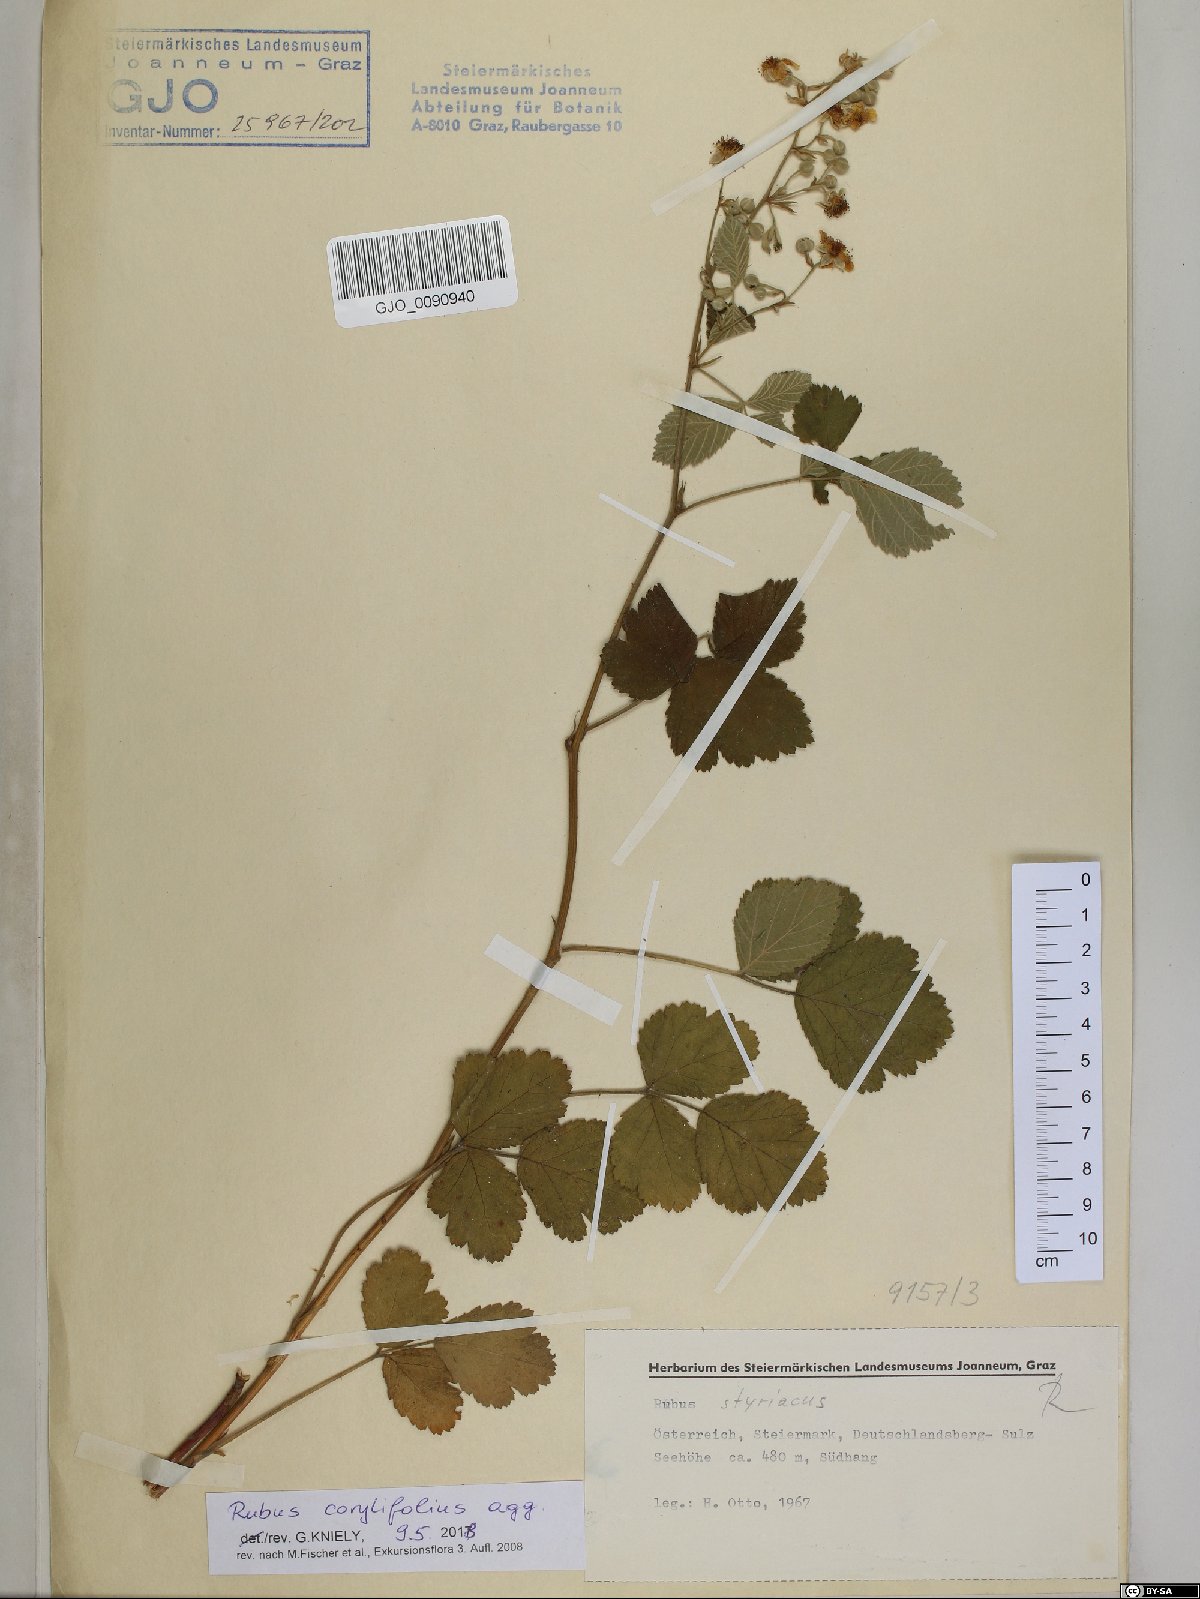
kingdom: Plantae
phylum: Tracheophyta
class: Magnoliopsida
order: Rosales
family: Rosaceae
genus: Rubus
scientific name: Rubus corylifolius
